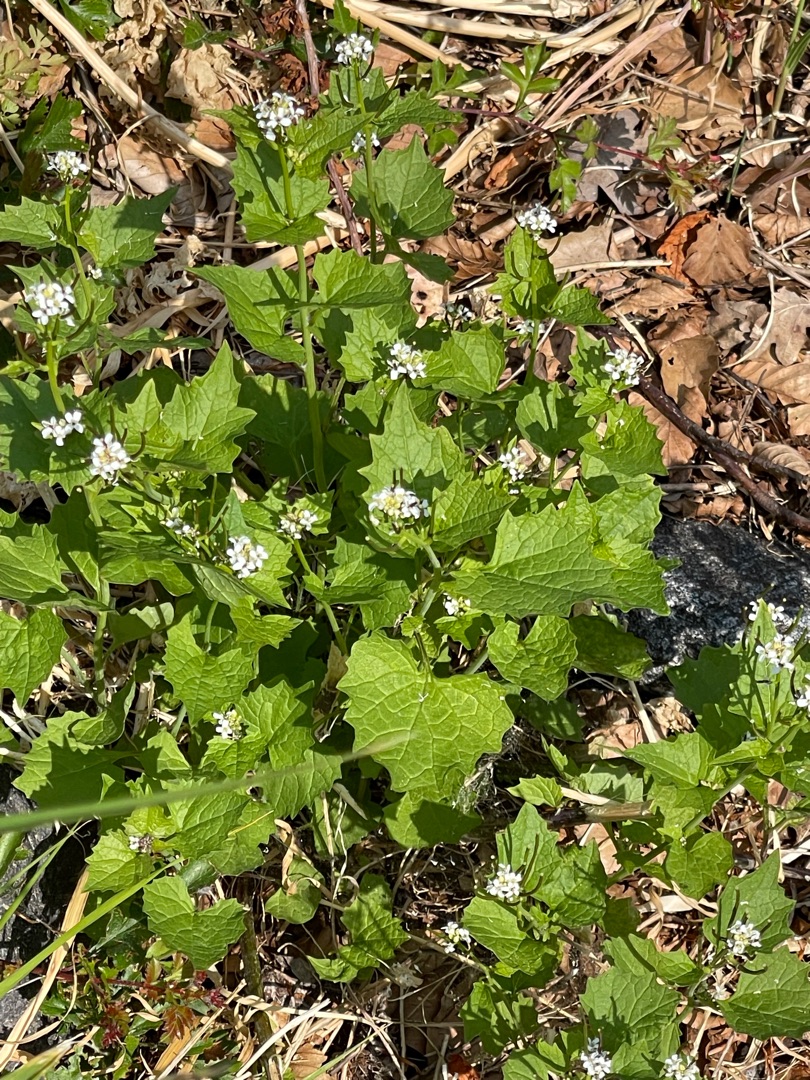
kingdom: Plantae
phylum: Tracheophyta
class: Magnoliopsida
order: Brassicales
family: Brassicaceae
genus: Alliaria
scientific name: Alliaria petiolata
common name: Løgkarse
